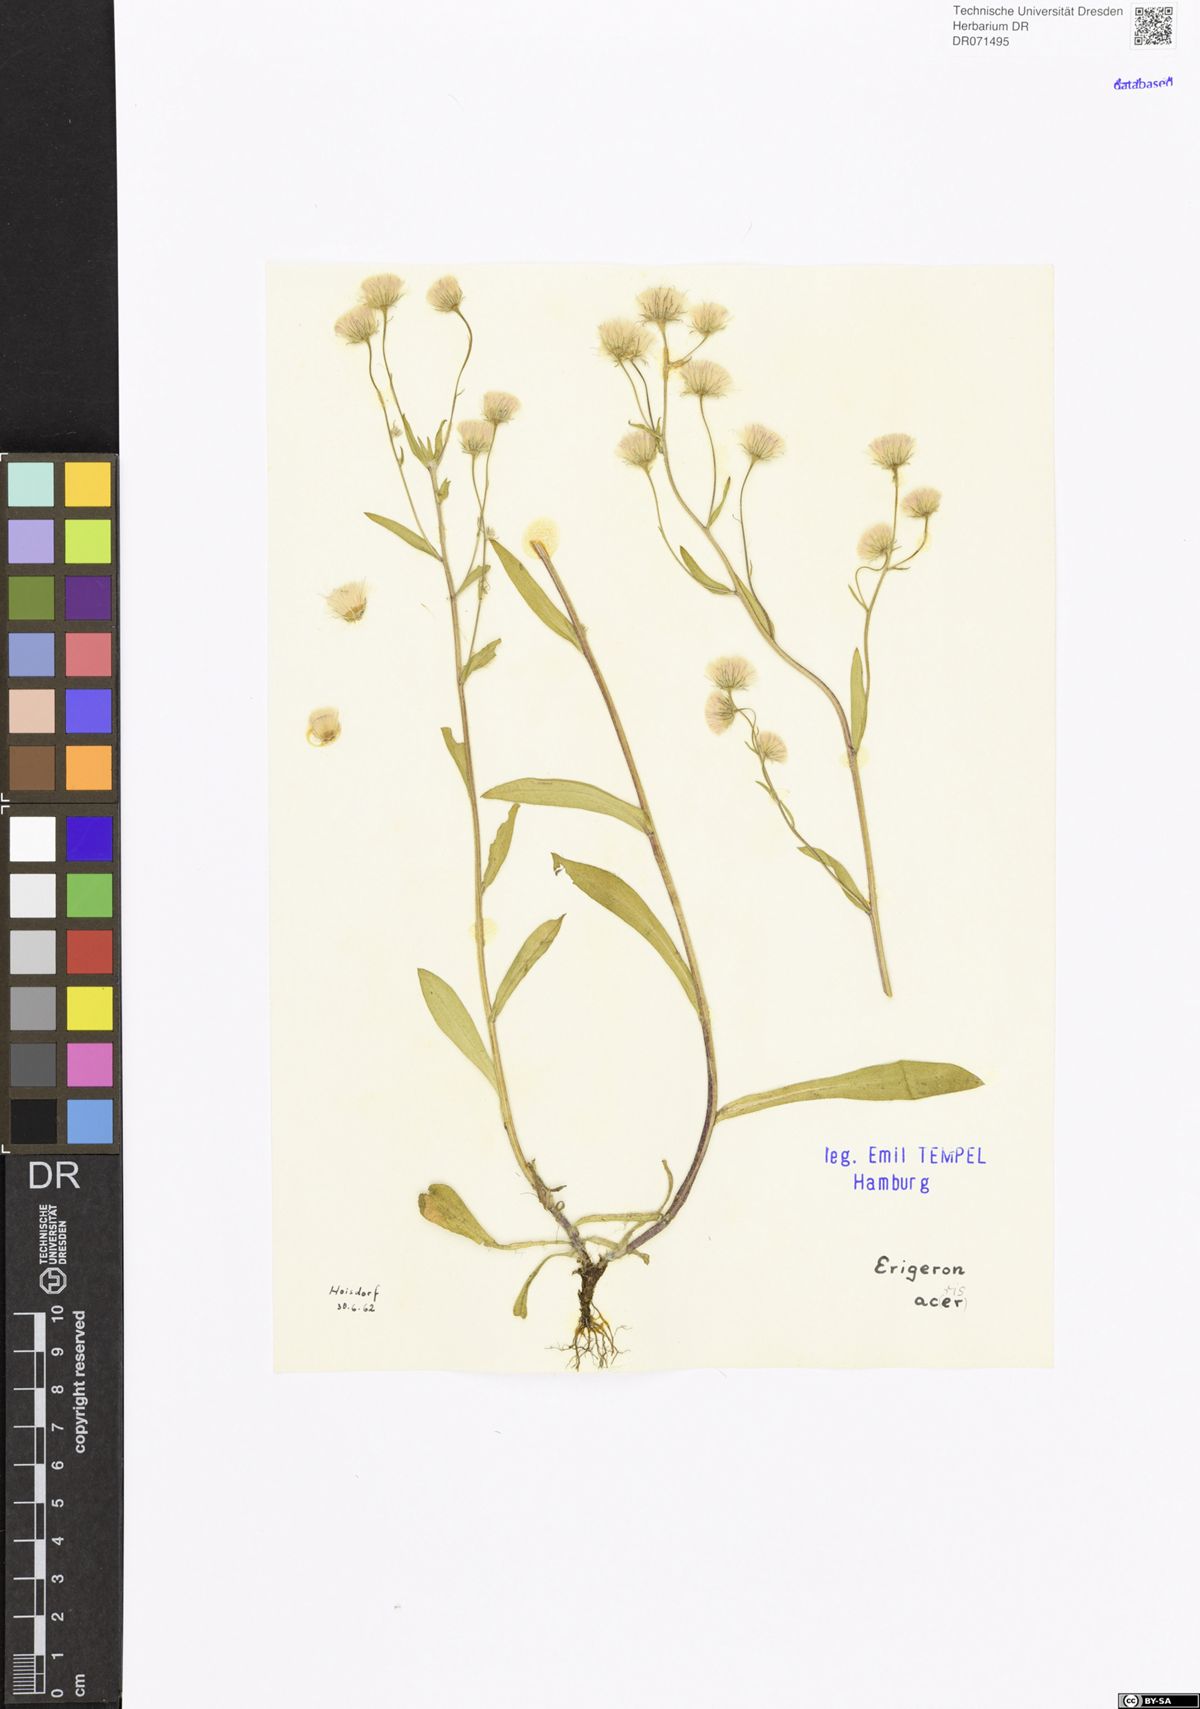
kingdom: Plantae
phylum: Tracheophyta
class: Magnoliopsida
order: Asterales
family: Asteraceae
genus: Erigeron
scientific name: Erigeron acris
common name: Blue fleabane
